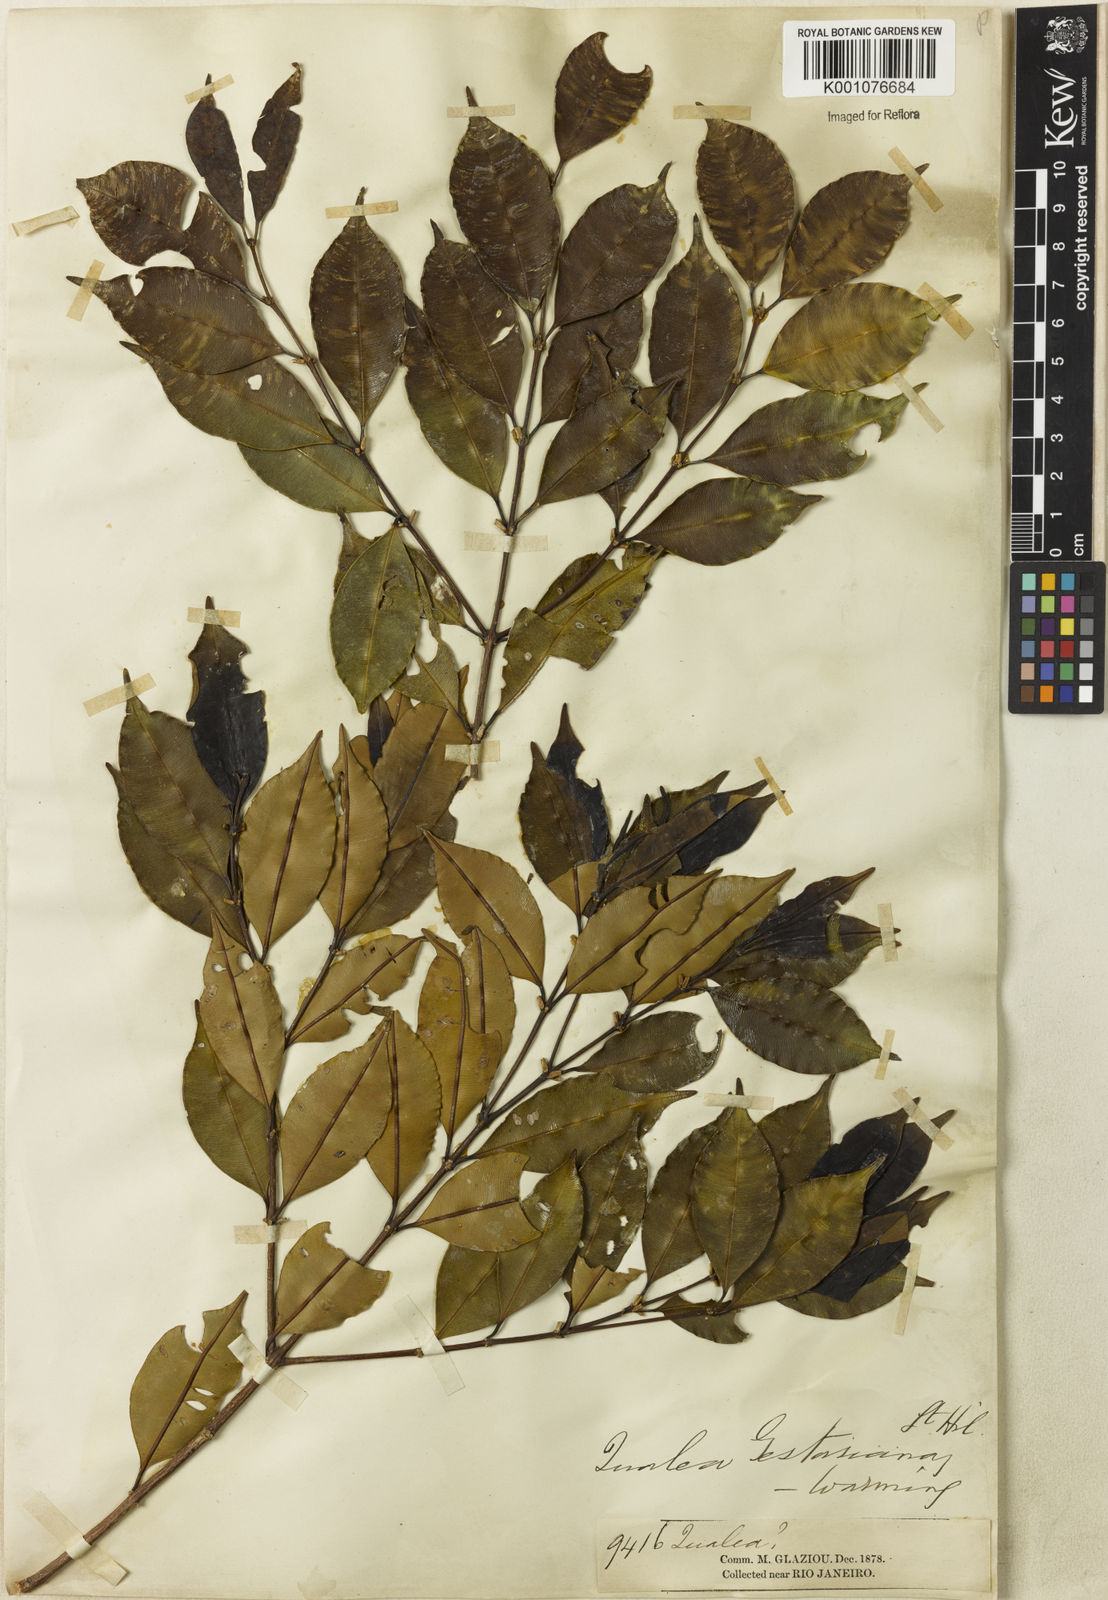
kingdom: Plantae
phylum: Tracheophyta
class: Magnoliopsida
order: Myrtales
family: Vochysiaceae
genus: Qualea
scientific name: Qualea gestasiana
